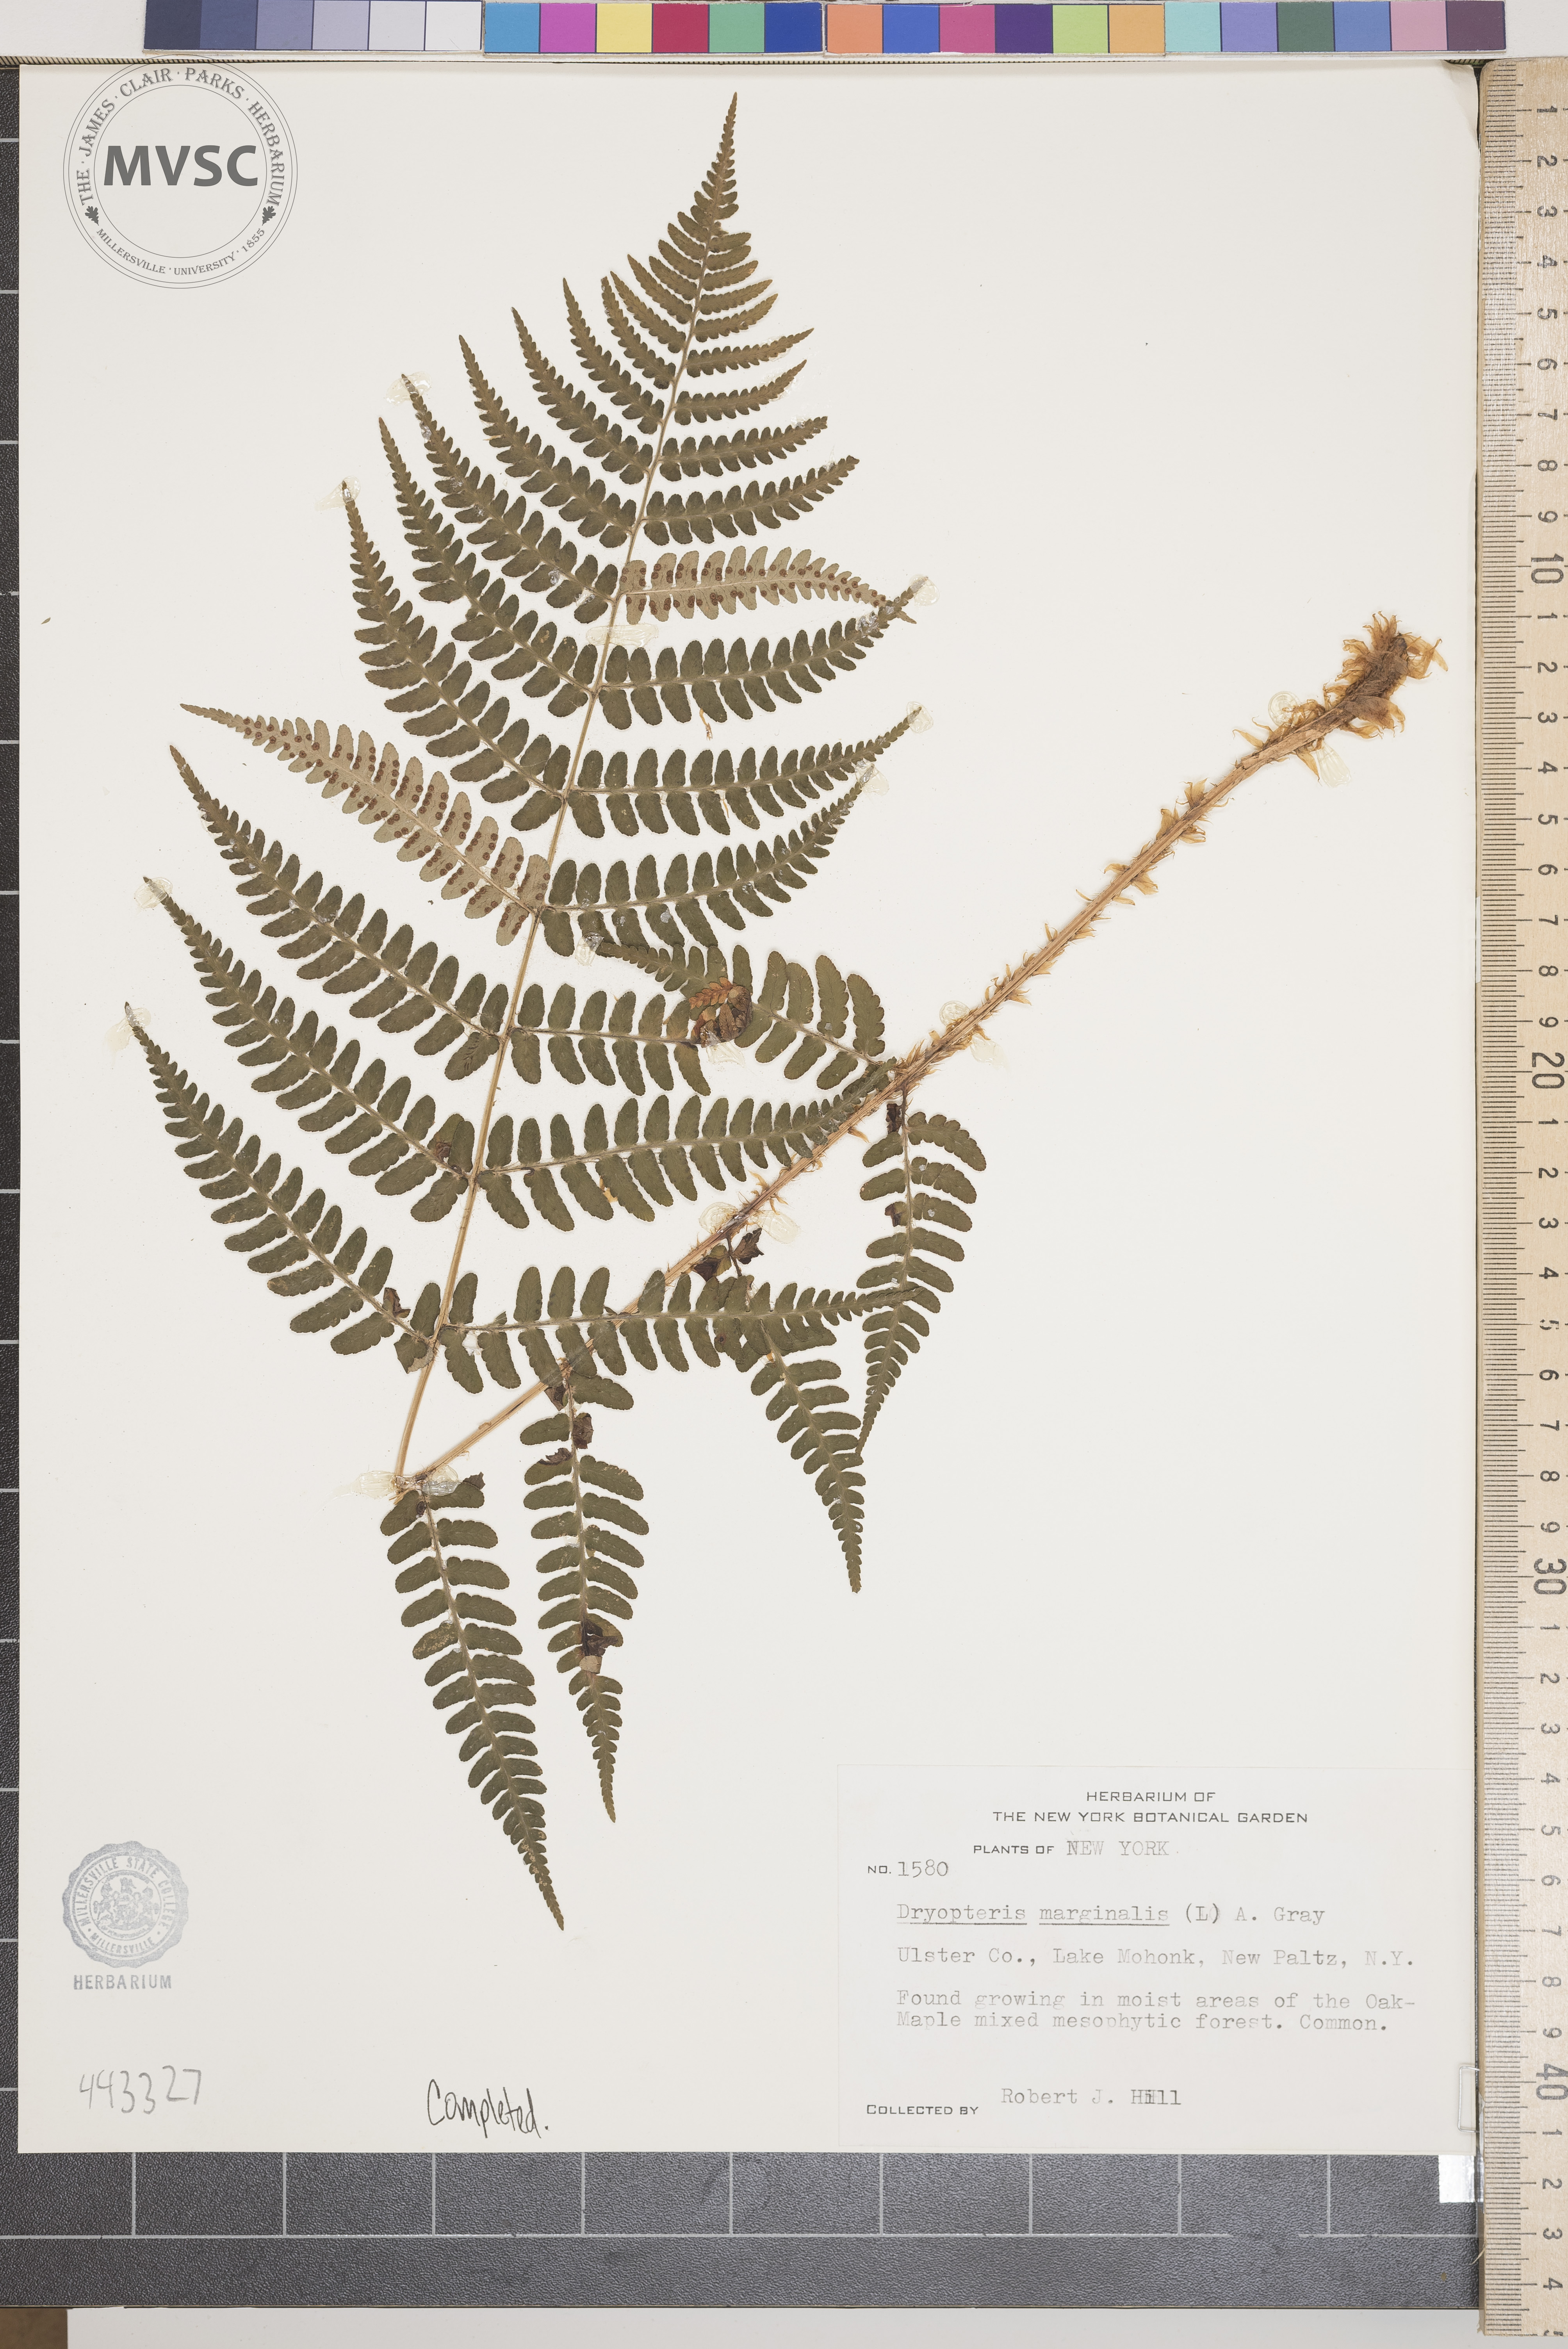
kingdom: Plantae
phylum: Tracheophyta
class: Polypodiopsida
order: Polypodiales
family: Dryopteridaceae
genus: Dryopteris
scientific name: Dryopteris marginalis
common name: Marginal wood fern
